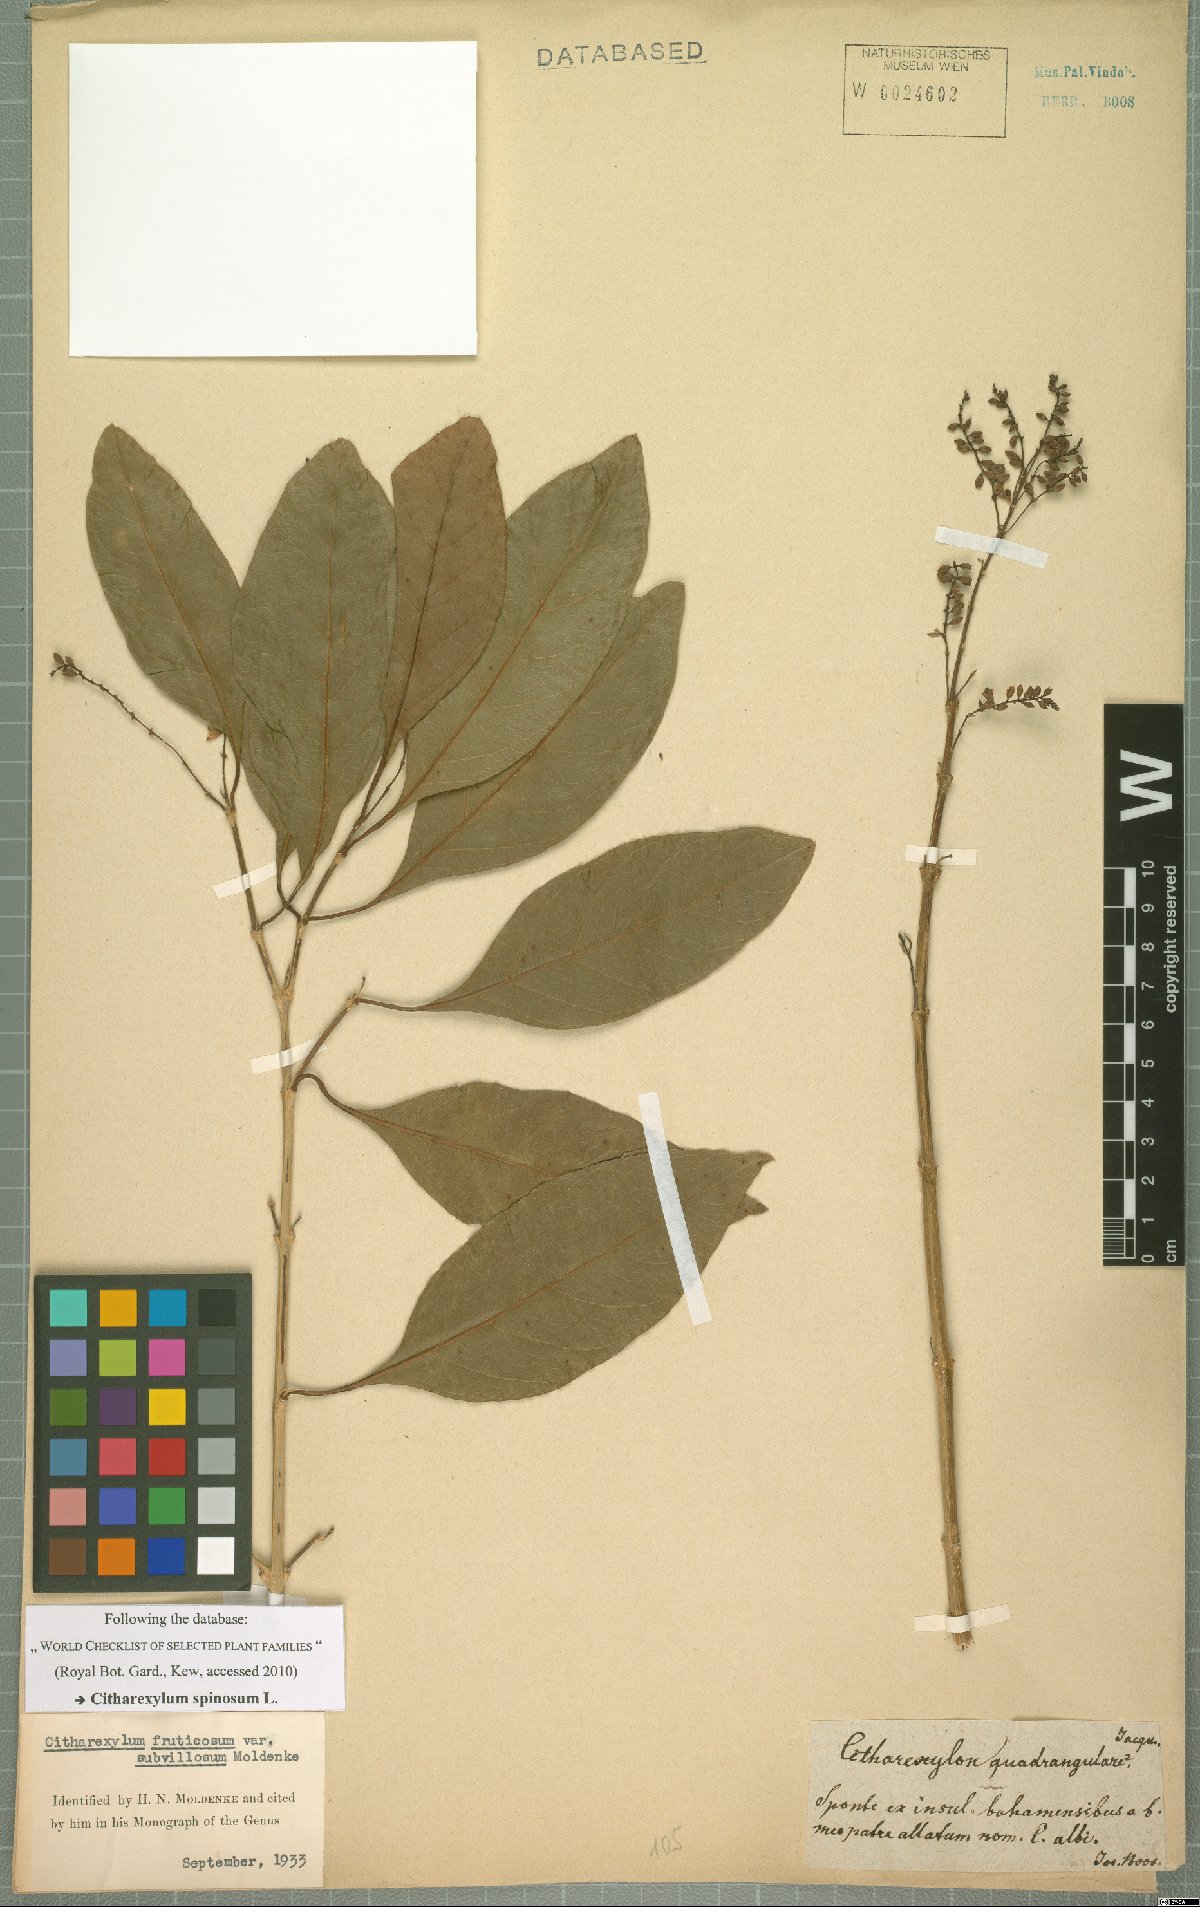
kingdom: Plantae
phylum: Tracheophyta
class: Magnoliopsida
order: Lamiales
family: Verbenaceae
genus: Citharexylum
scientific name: Citharexylum spinosum
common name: Fiddlewood
